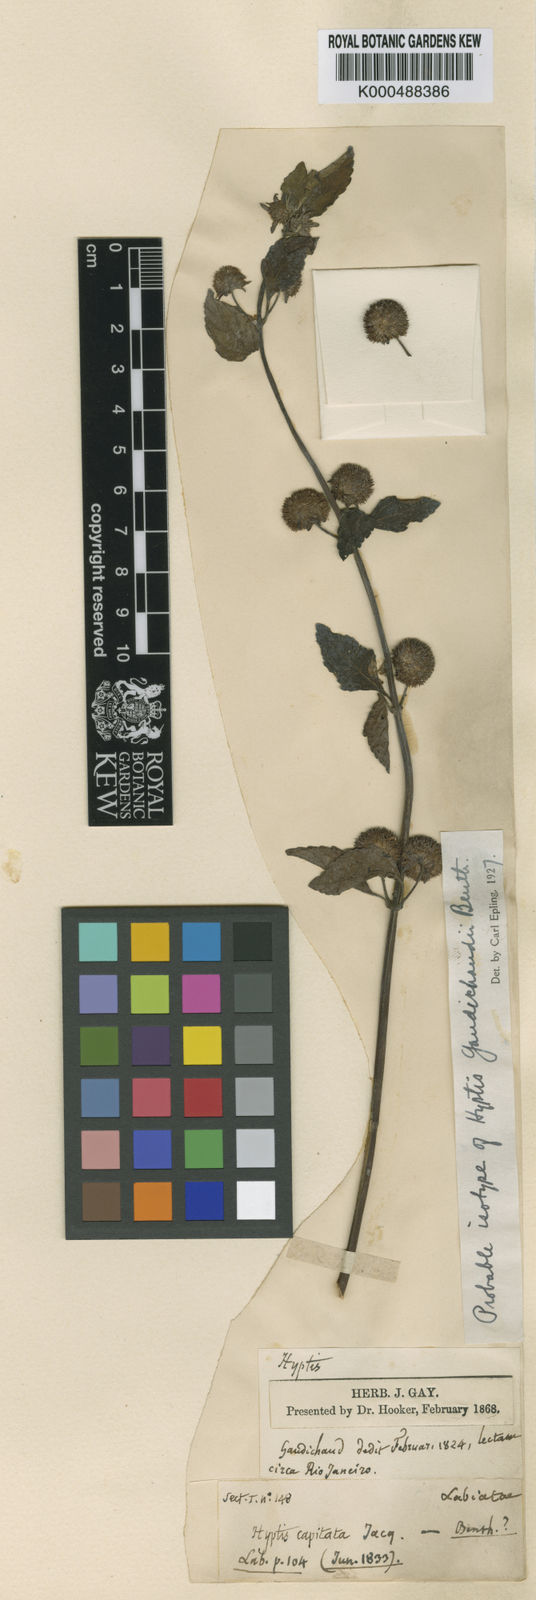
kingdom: Plantae
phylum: Tracheophyta
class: Magnoliopsida
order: Lamiales
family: Lamiaceae
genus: Hyptis
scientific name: Hyptis inodora
